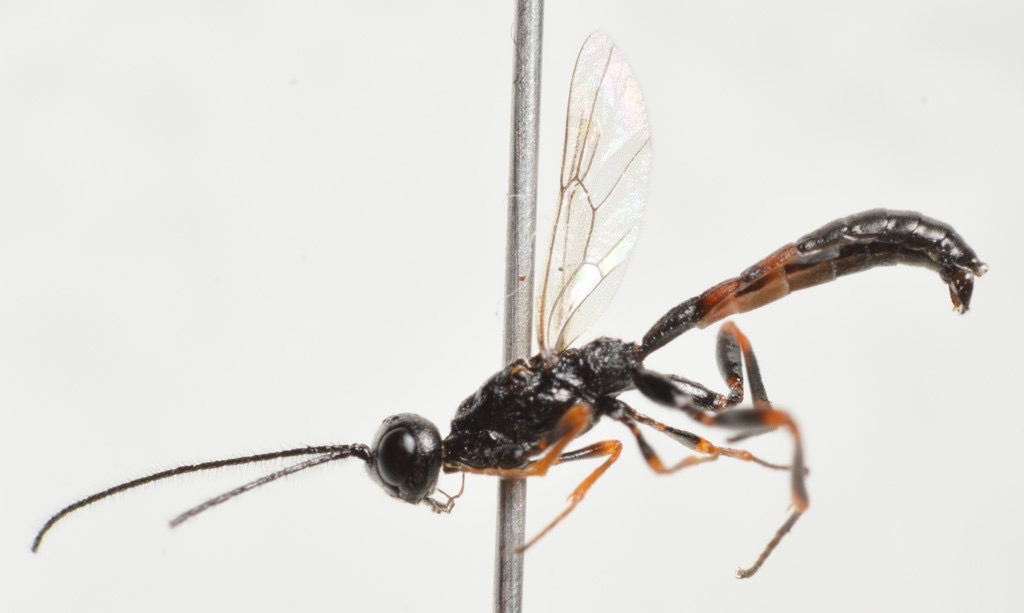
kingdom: Animalia
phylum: Arthropoda
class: Insecta
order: Hymenoptera
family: Ichneumonidae
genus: Xorides
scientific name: Xorides niger
